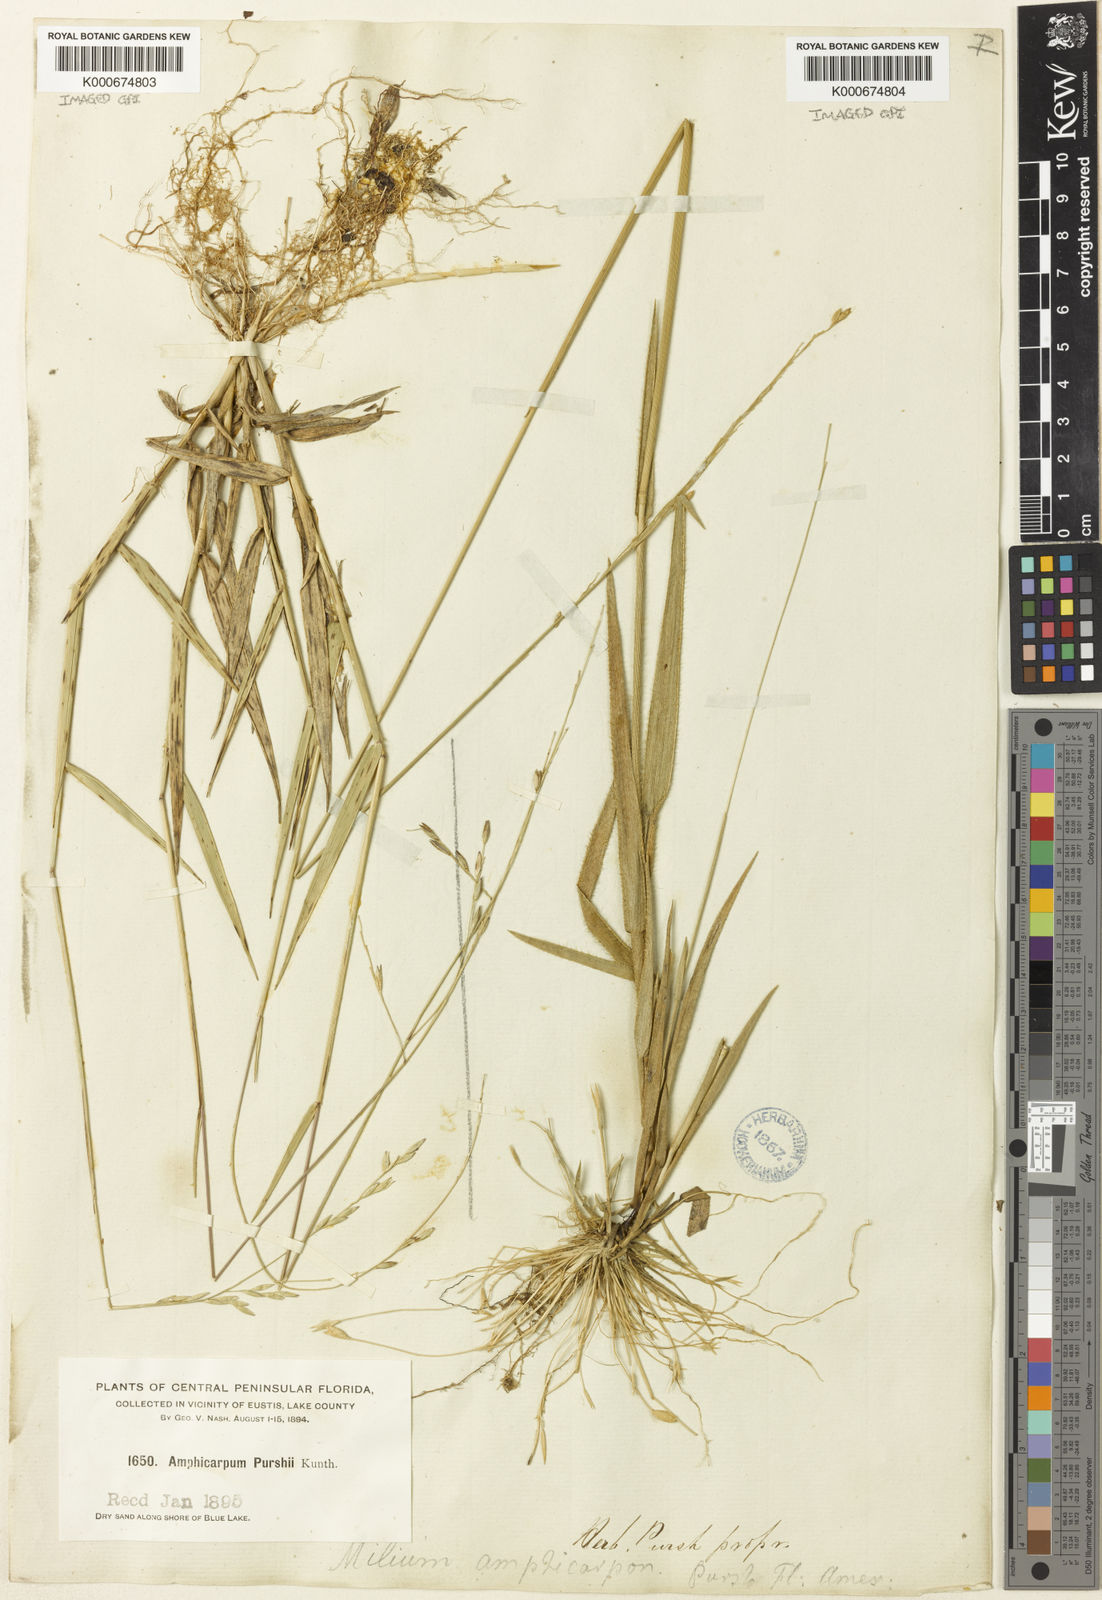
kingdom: Plantae
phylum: Tracheophyta
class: Liliopsida
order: Poales
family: Poaceae
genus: Amphicarpum
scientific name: Amphicarpum amphicarpon
